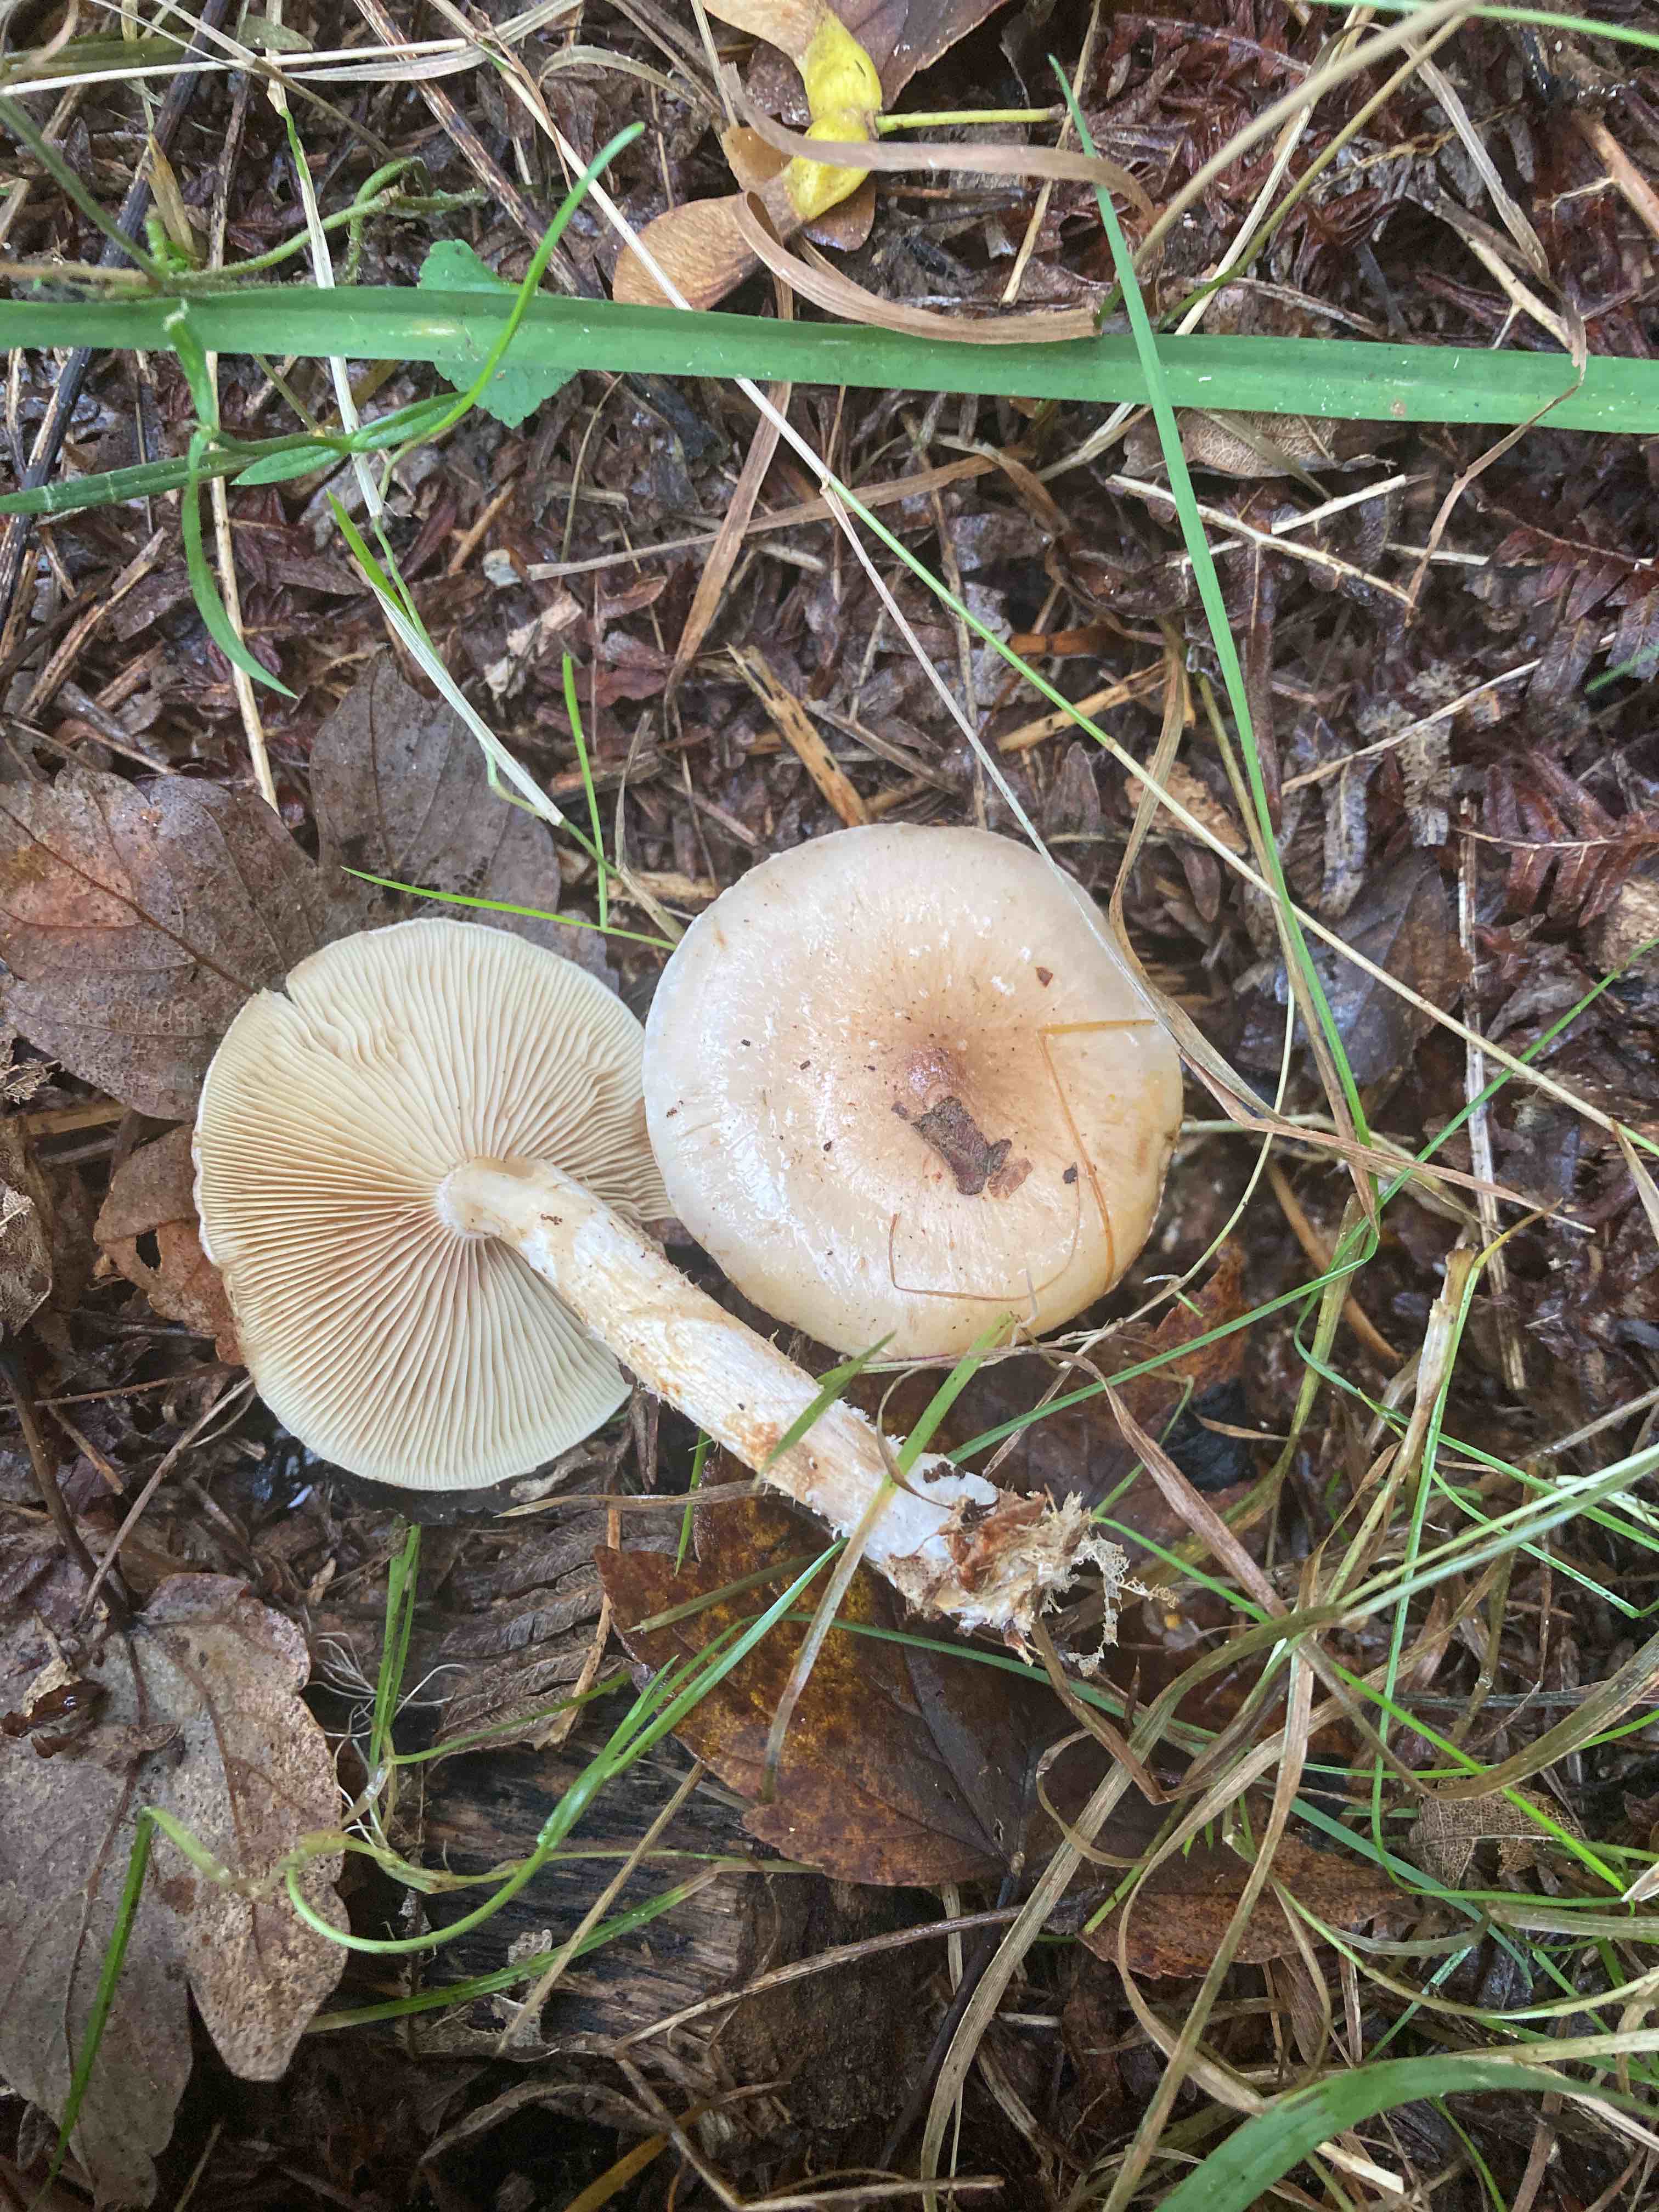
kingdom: Fungi
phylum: Basidiomycota
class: Agaricomycetes
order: Agaricales
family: Strophariaceae
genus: Pholiota
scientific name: Pholiota lenta
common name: løv-skælhat
